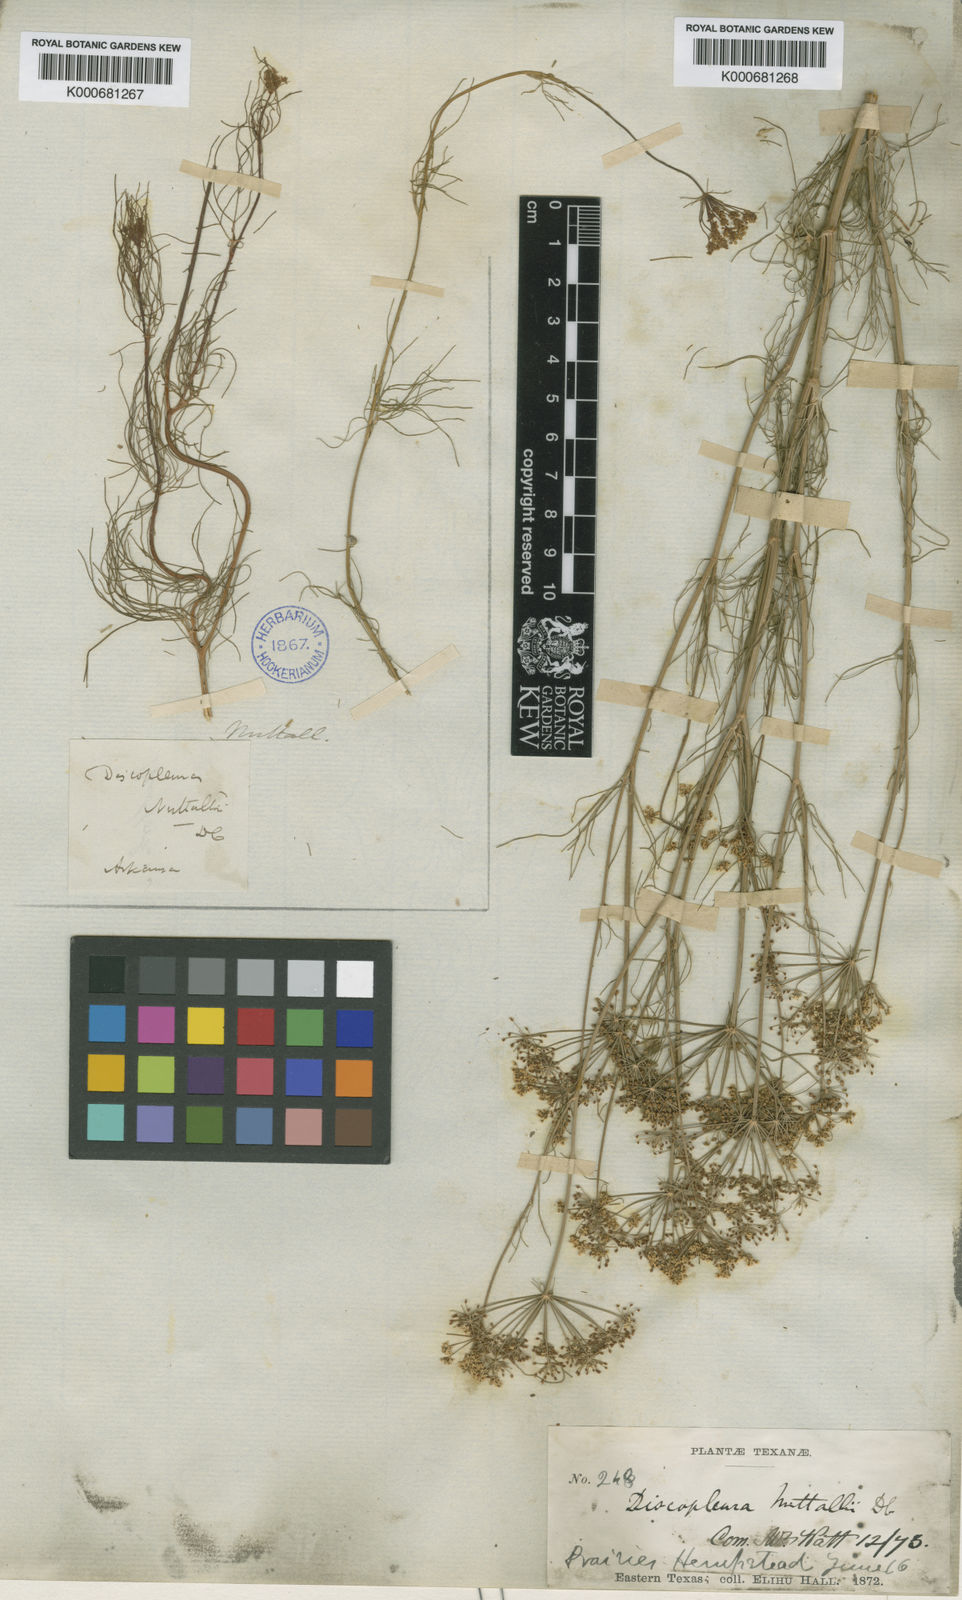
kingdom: Plantae
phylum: Tracheophyta
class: Magnoliopsida
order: Apiales
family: Apiaceae
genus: Ptilimnium
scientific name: Ptilimnium nuttallii
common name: Ozark bishop's-weed
